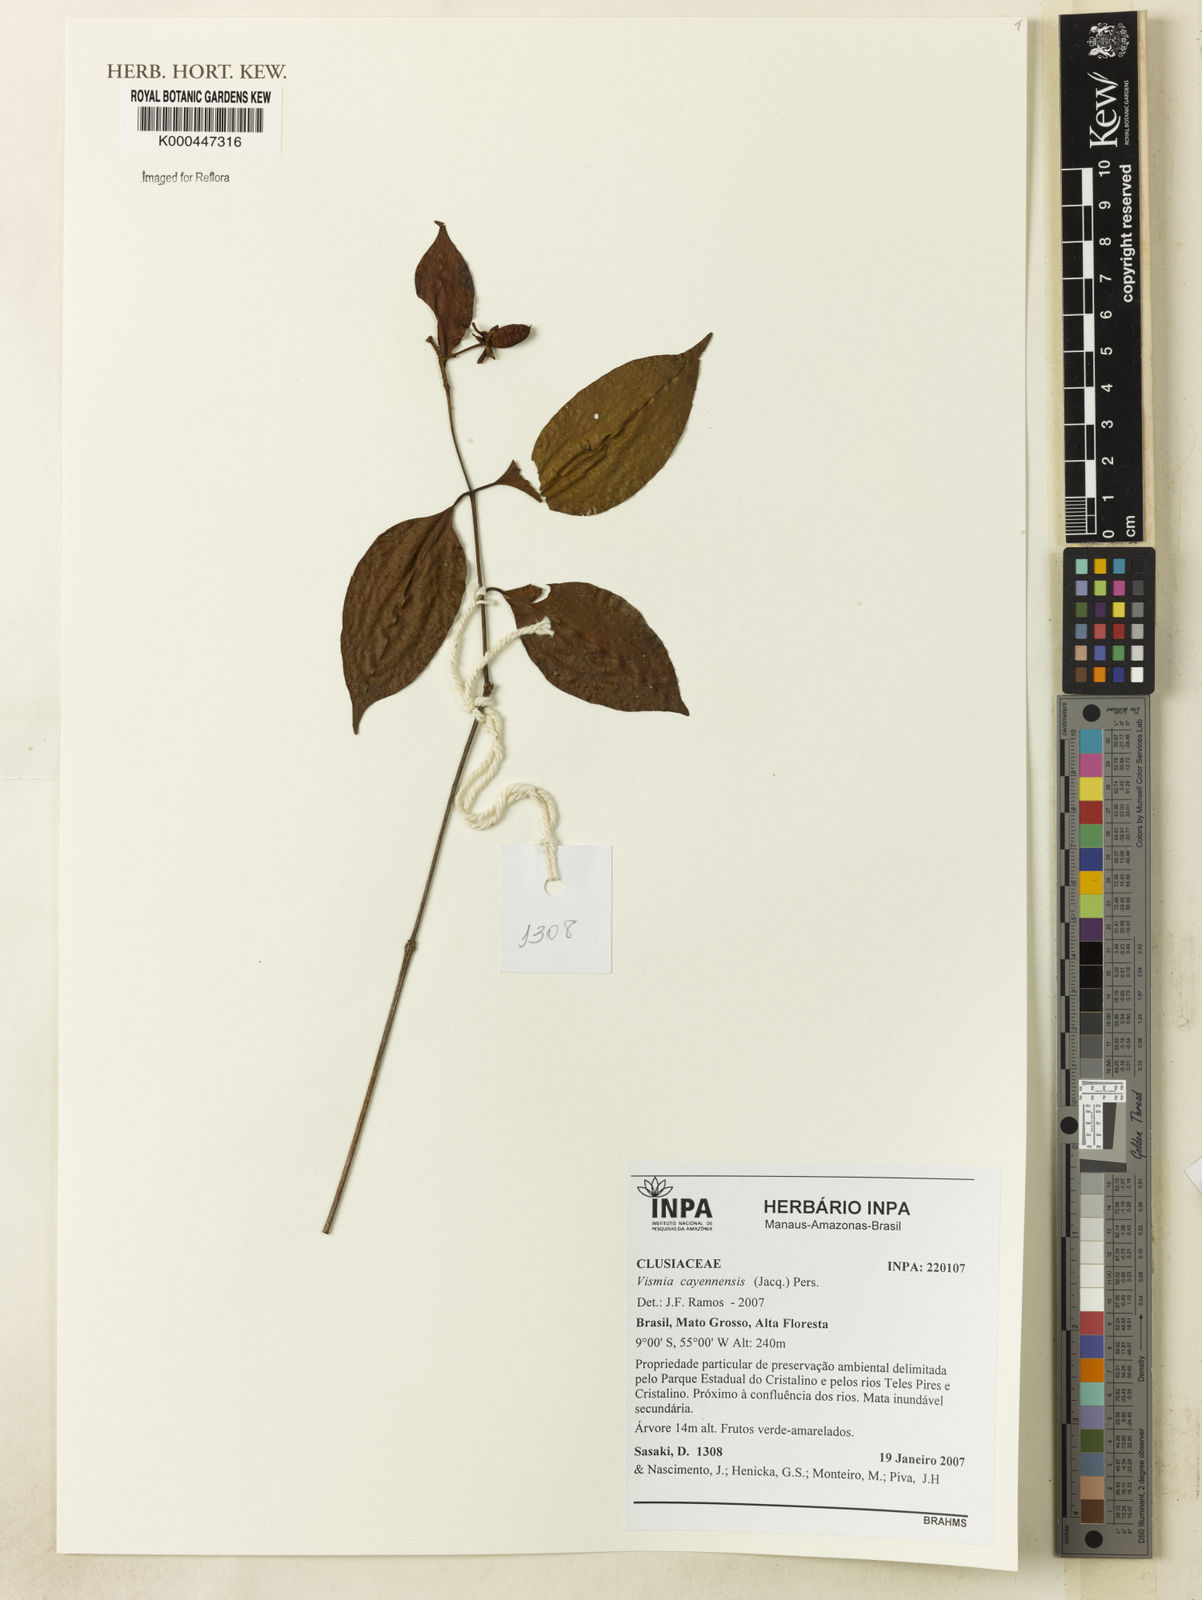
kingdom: Plantae
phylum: Tracheophyta
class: Magnoliopsida
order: Malpighiales
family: Hypericaceae
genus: Vismia
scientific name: Vismia cayennensis
